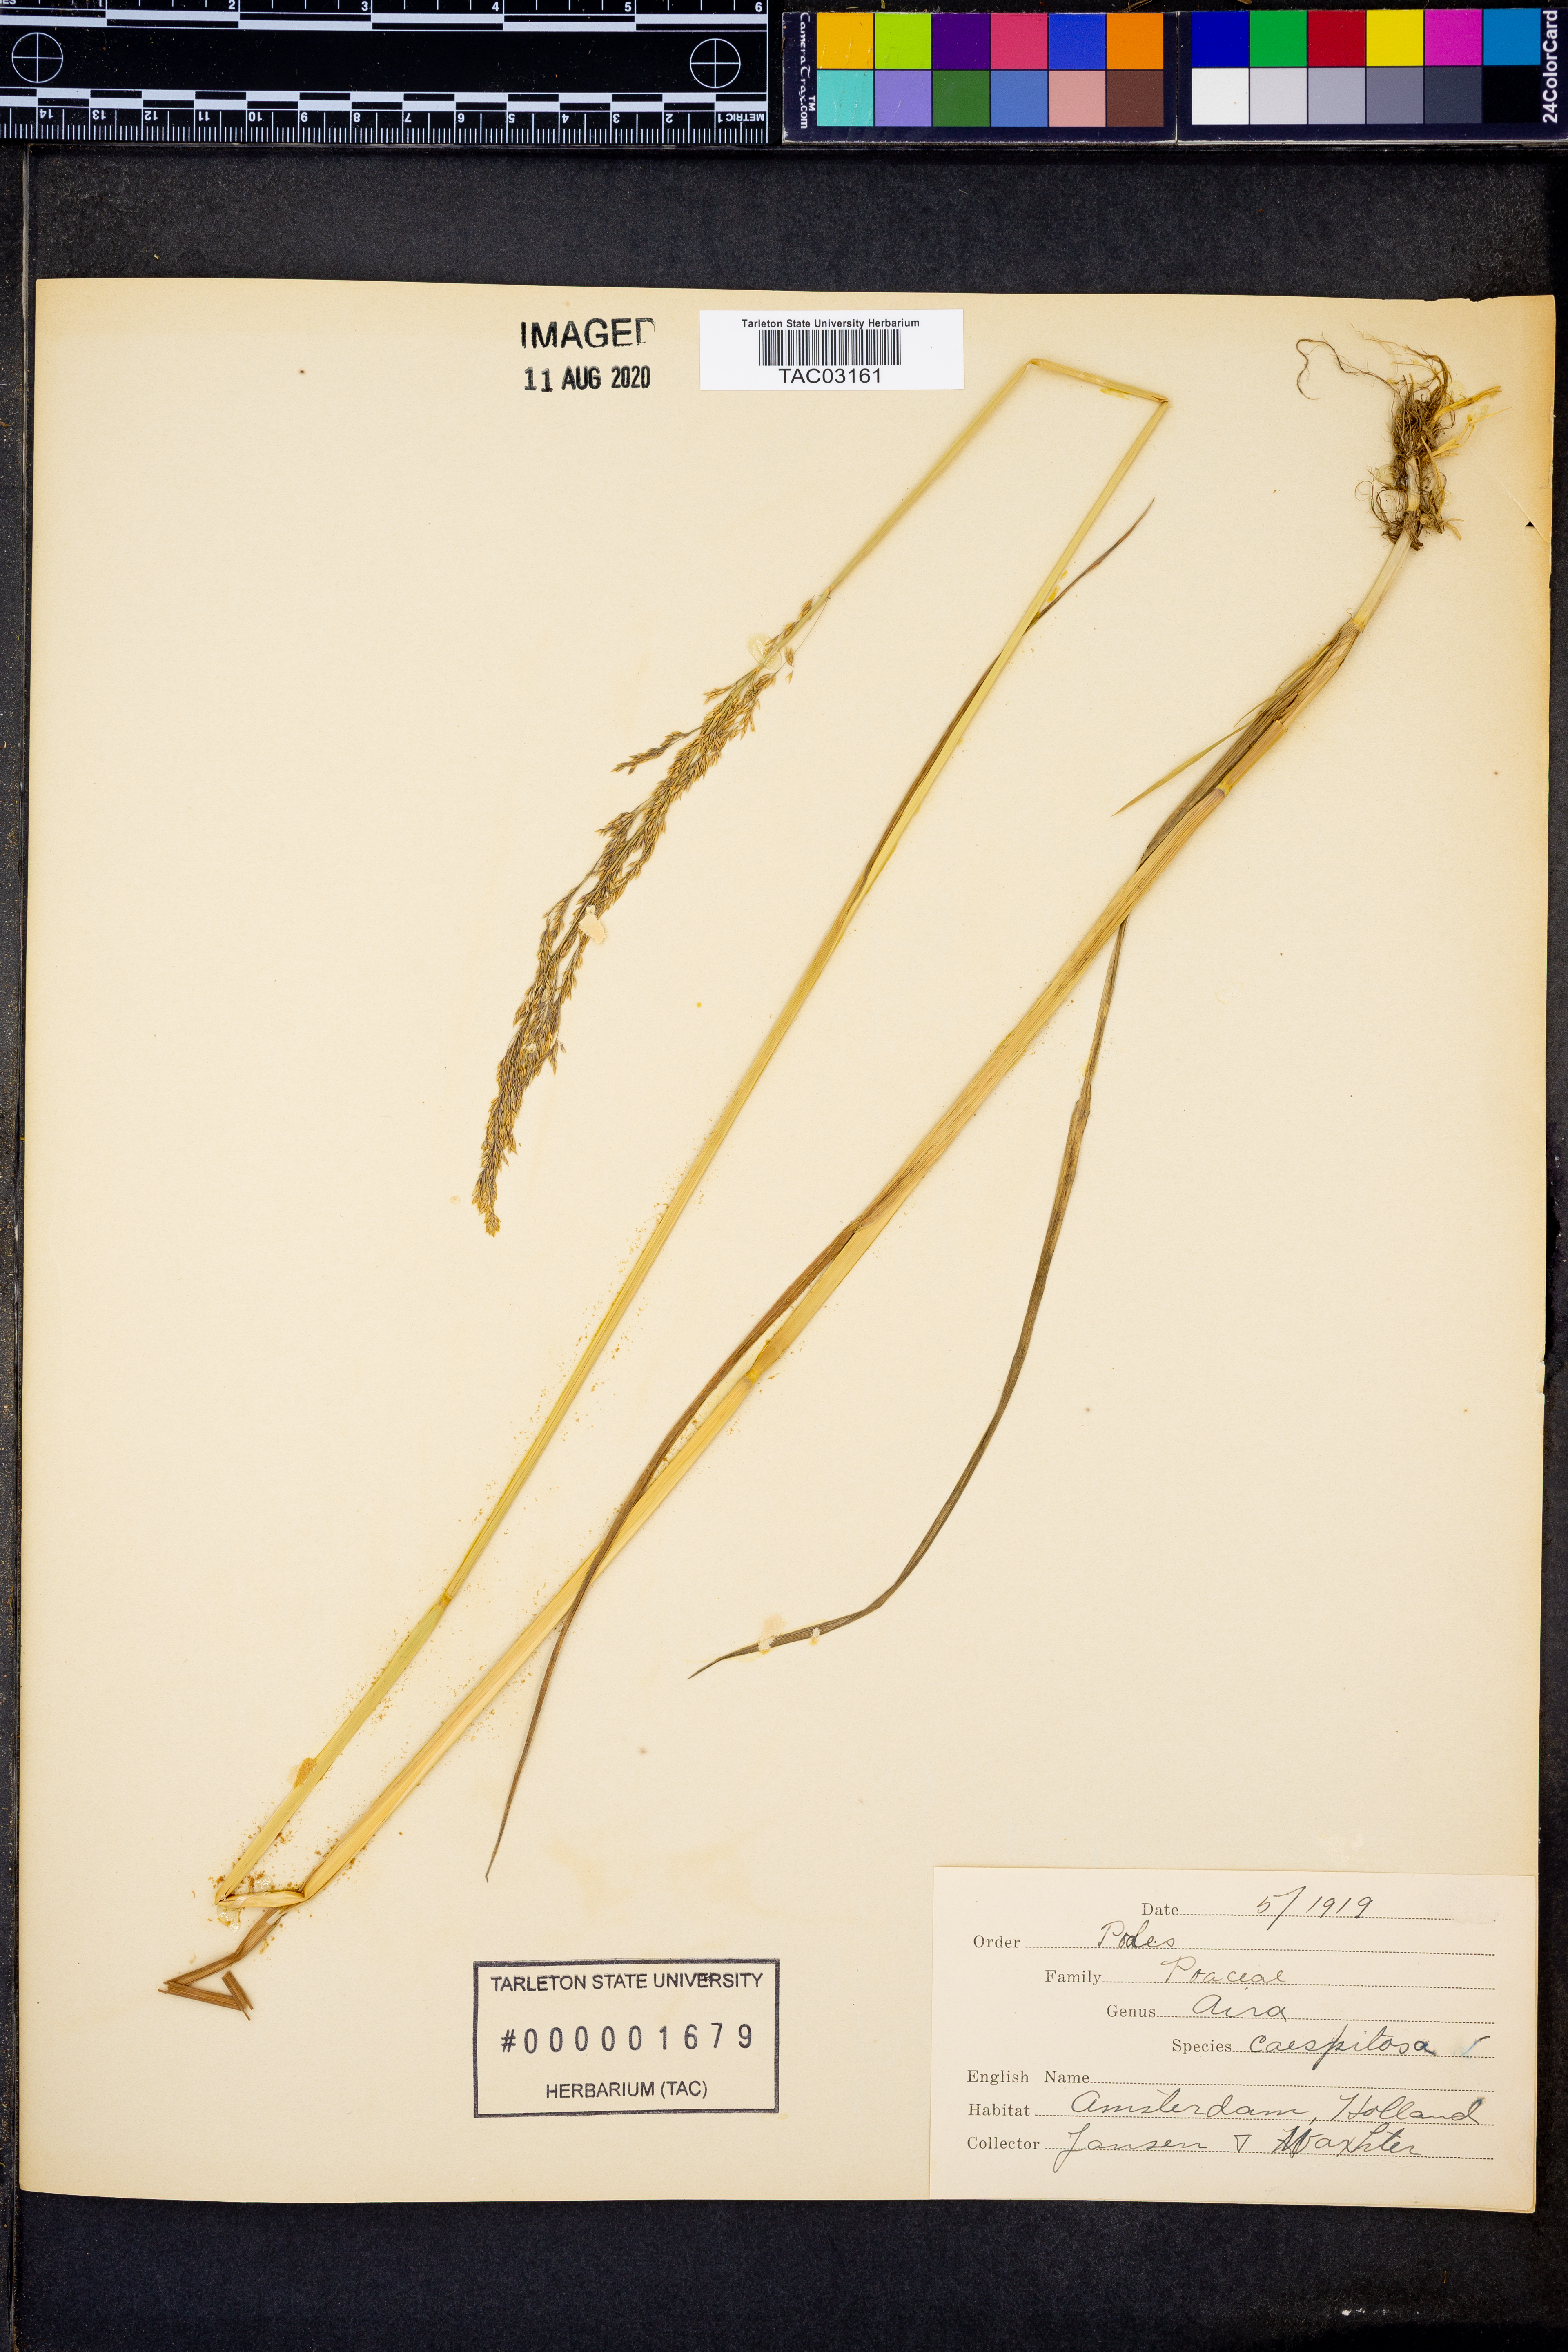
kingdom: Plantae
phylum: Tracheophyta
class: Liliopsida
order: Poales
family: Poaceae
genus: Deschampsia
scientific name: Deschampsia cespitosa
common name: Tufted hair-grass
